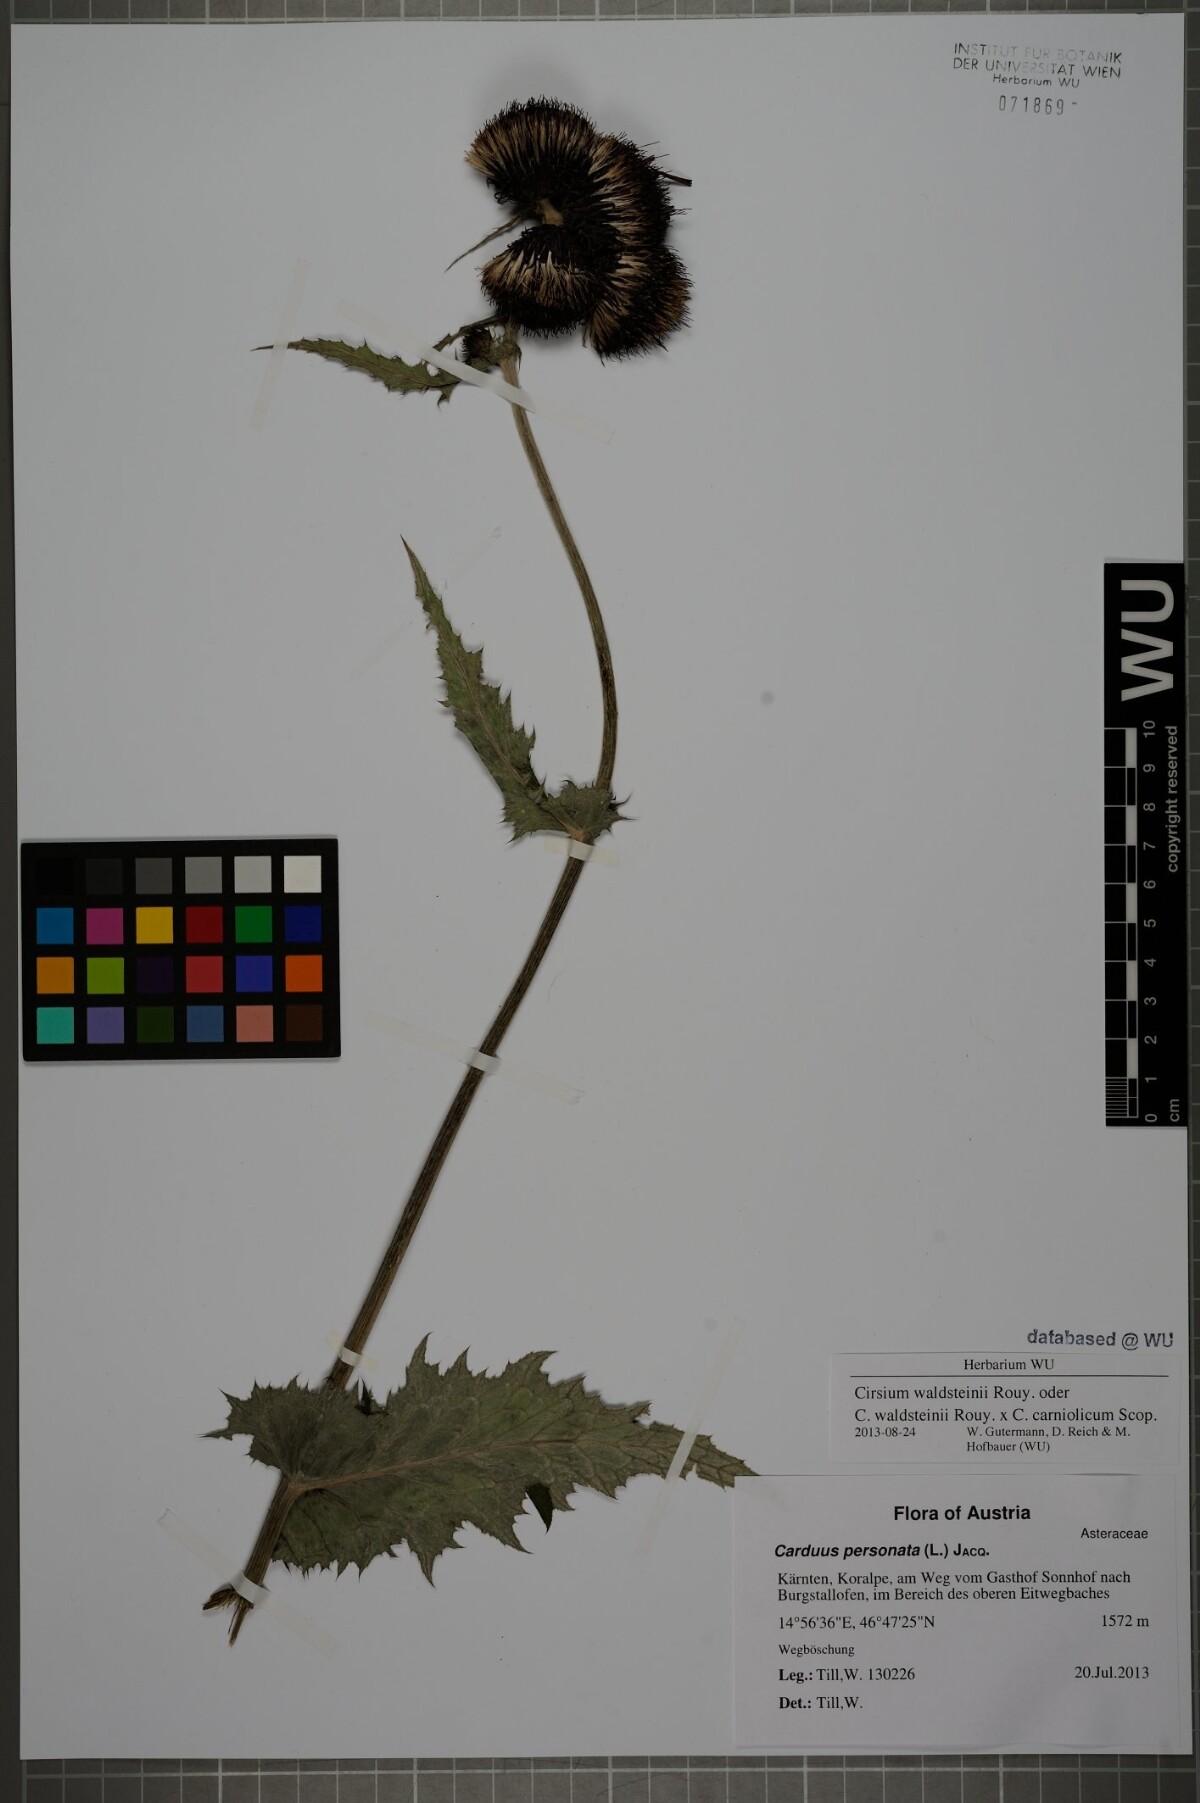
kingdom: Plantae
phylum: Tracheophyta
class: Magnoliopsida
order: Asterales
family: Asteraceae
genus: Cirsium
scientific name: Cirsium greimleri
